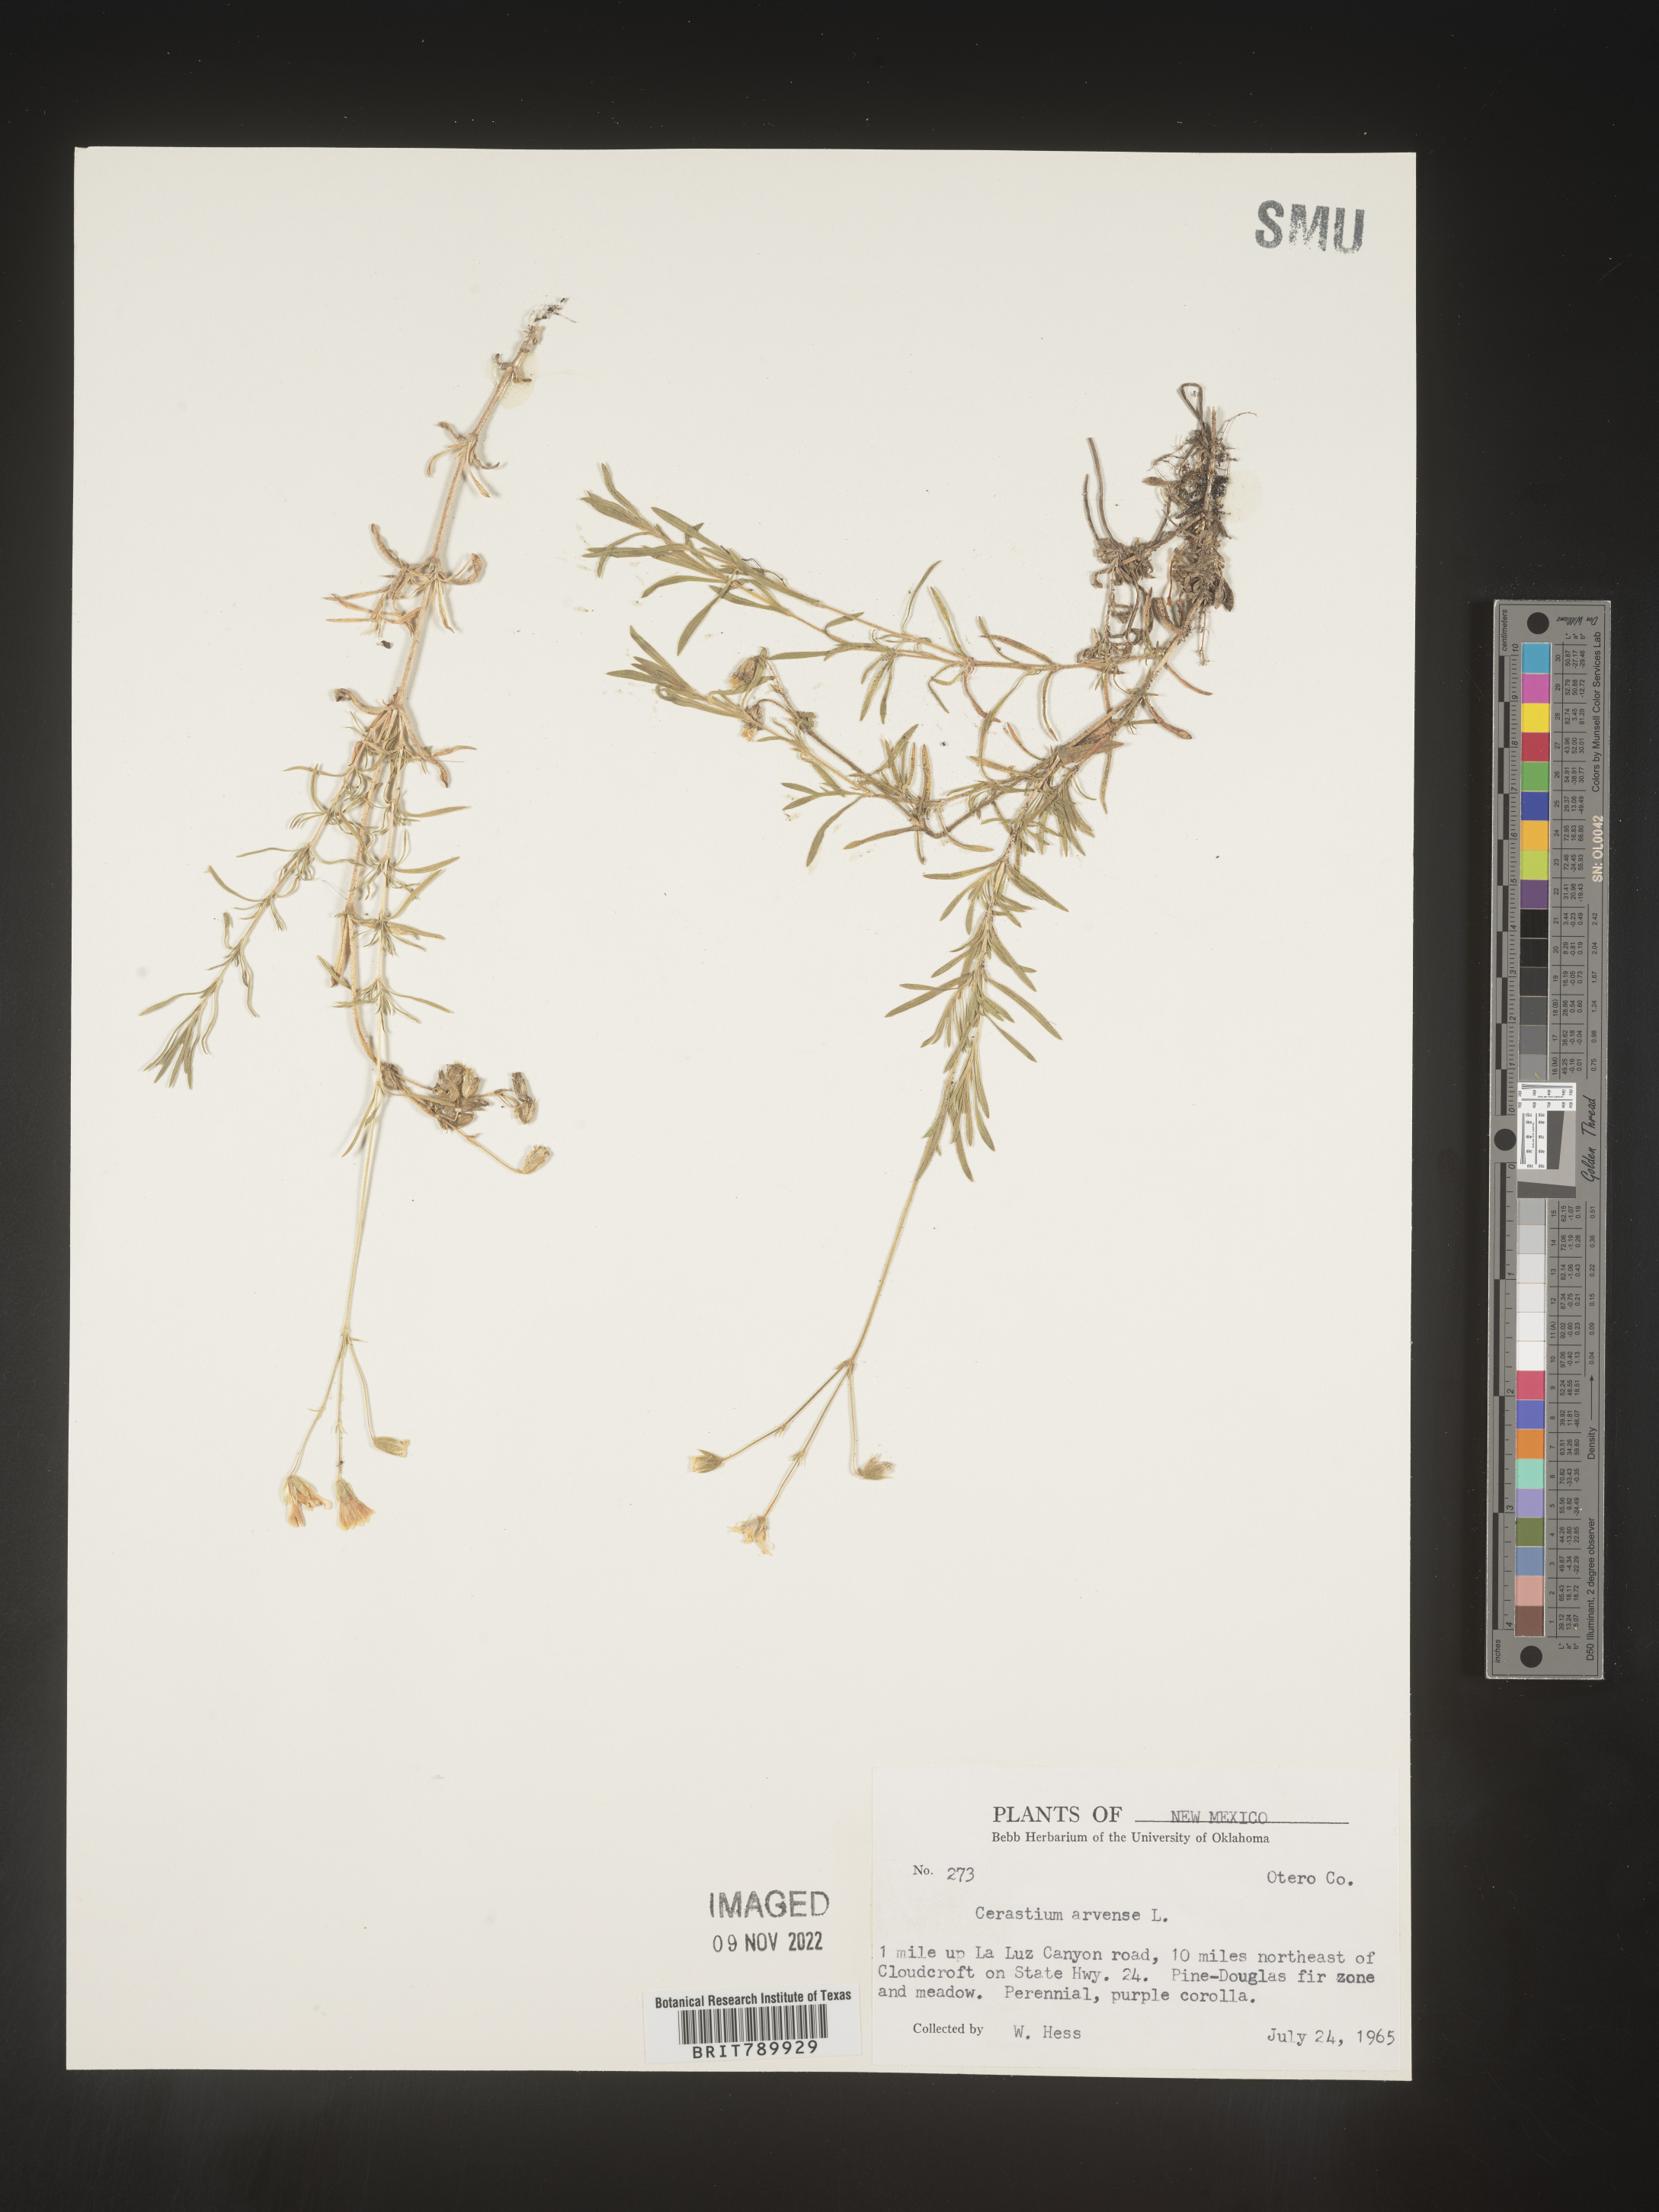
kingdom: Plantae
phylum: Tracheophyta
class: Magnoliopsida
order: Caryophyllales
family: Caryophyllaceae
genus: Cerastium
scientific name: Cerastium arvense
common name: Field mouse-ear
